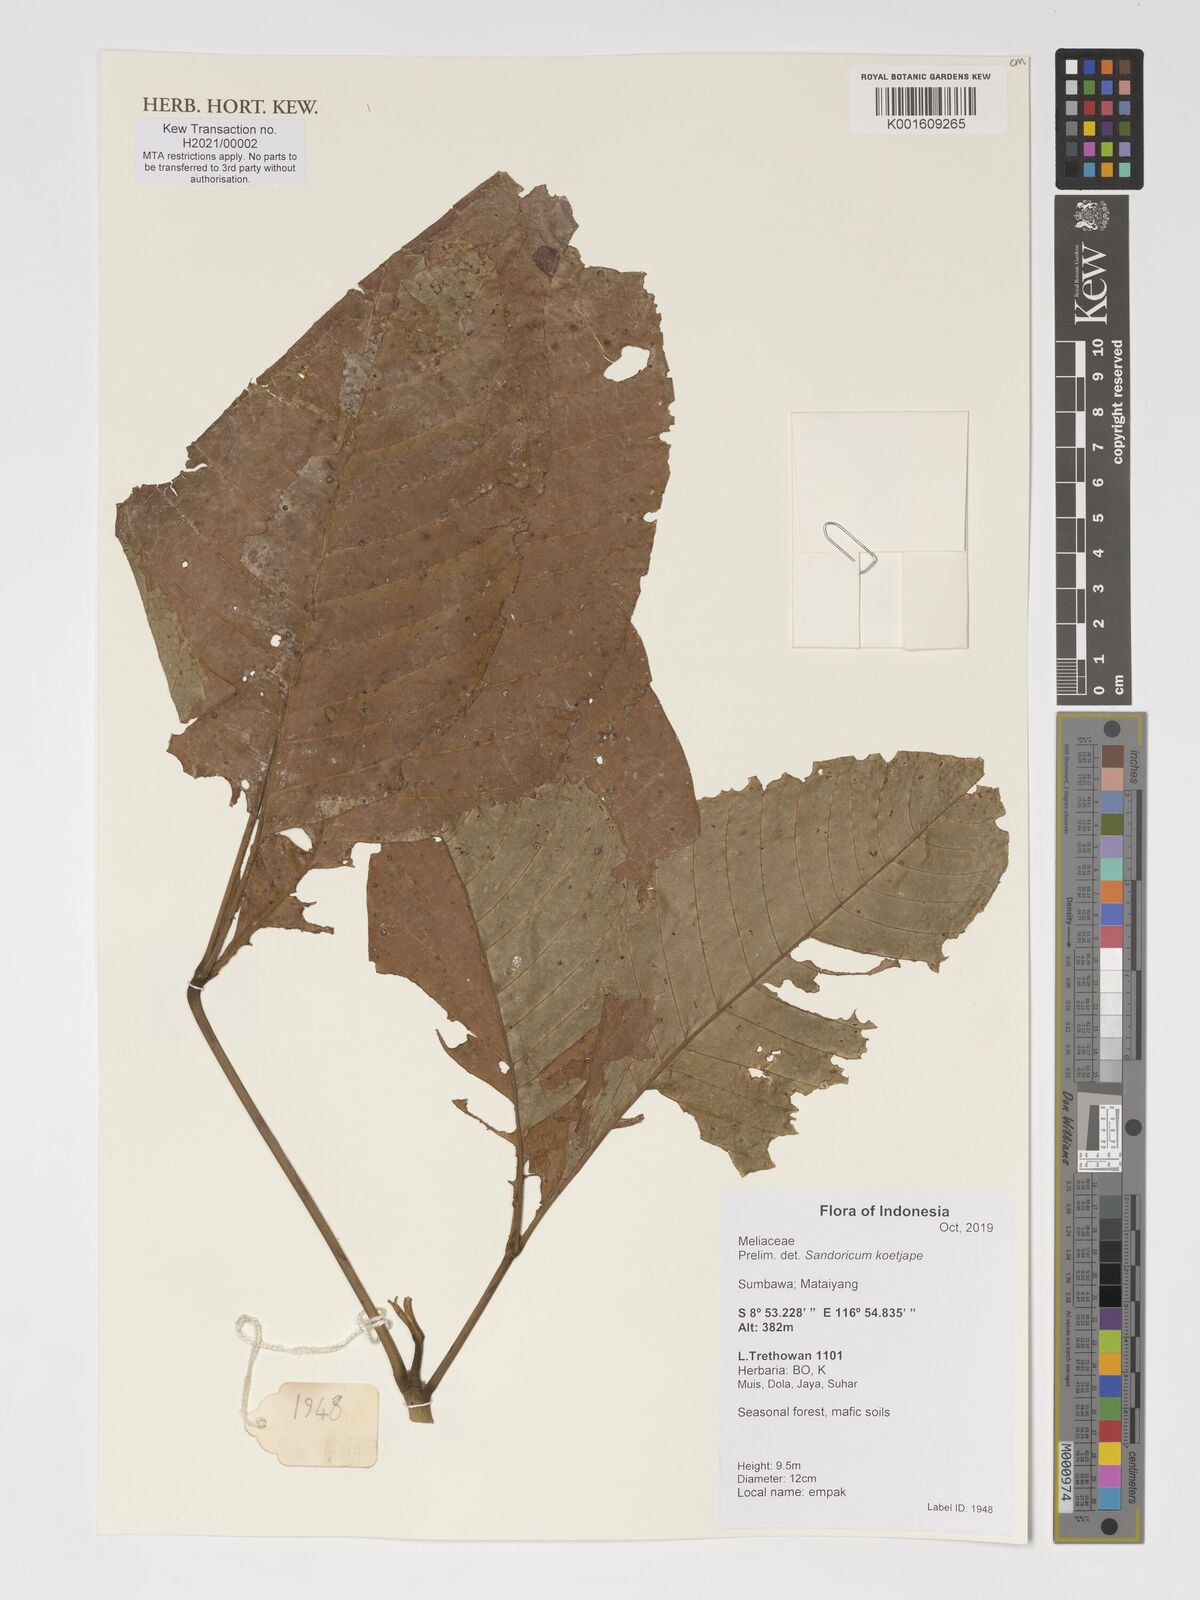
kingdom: Plantae
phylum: Tracheophyta
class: Magnoliopsida
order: Sapindales
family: Meliaceae
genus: Sandoricum
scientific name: Sandoricum koetjape
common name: Santol
